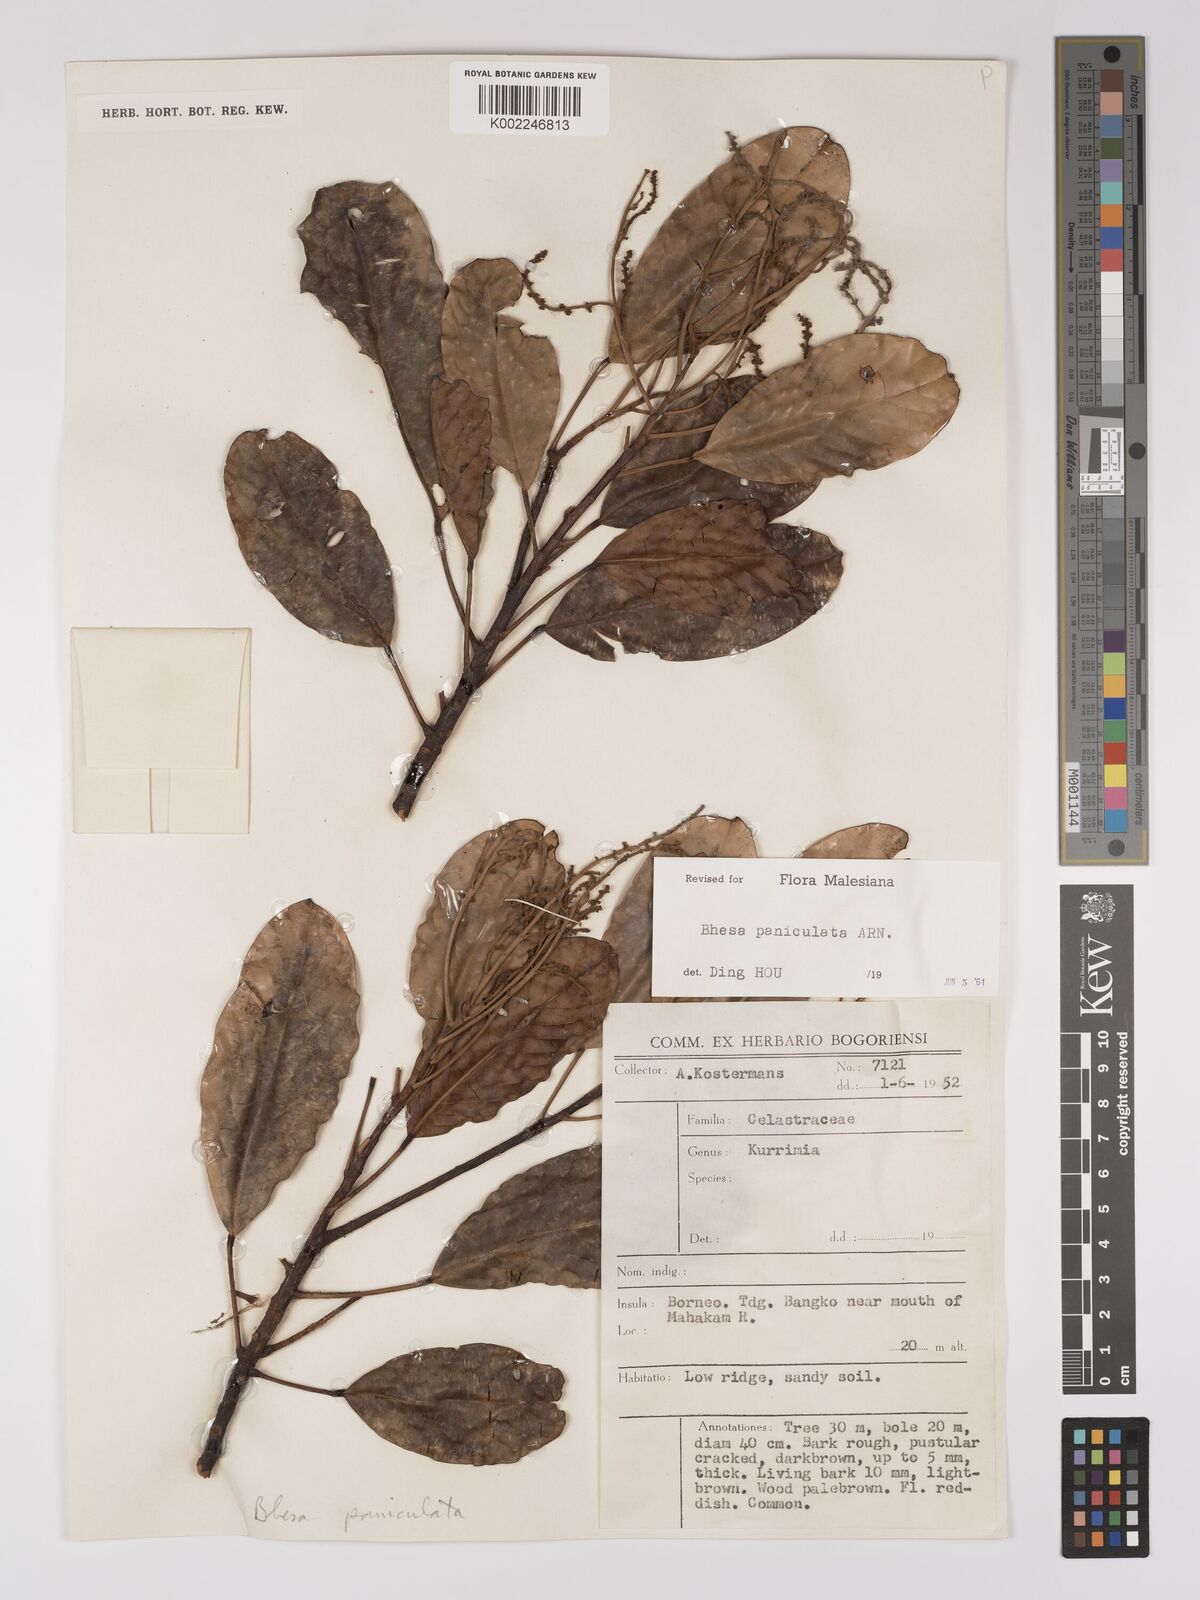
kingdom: Plantae
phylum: Tracheophyta
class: Magnoliopsida
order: Malpighiales
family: Centroplacaceae
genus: Bhesa
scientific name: Bhesa paniculata
